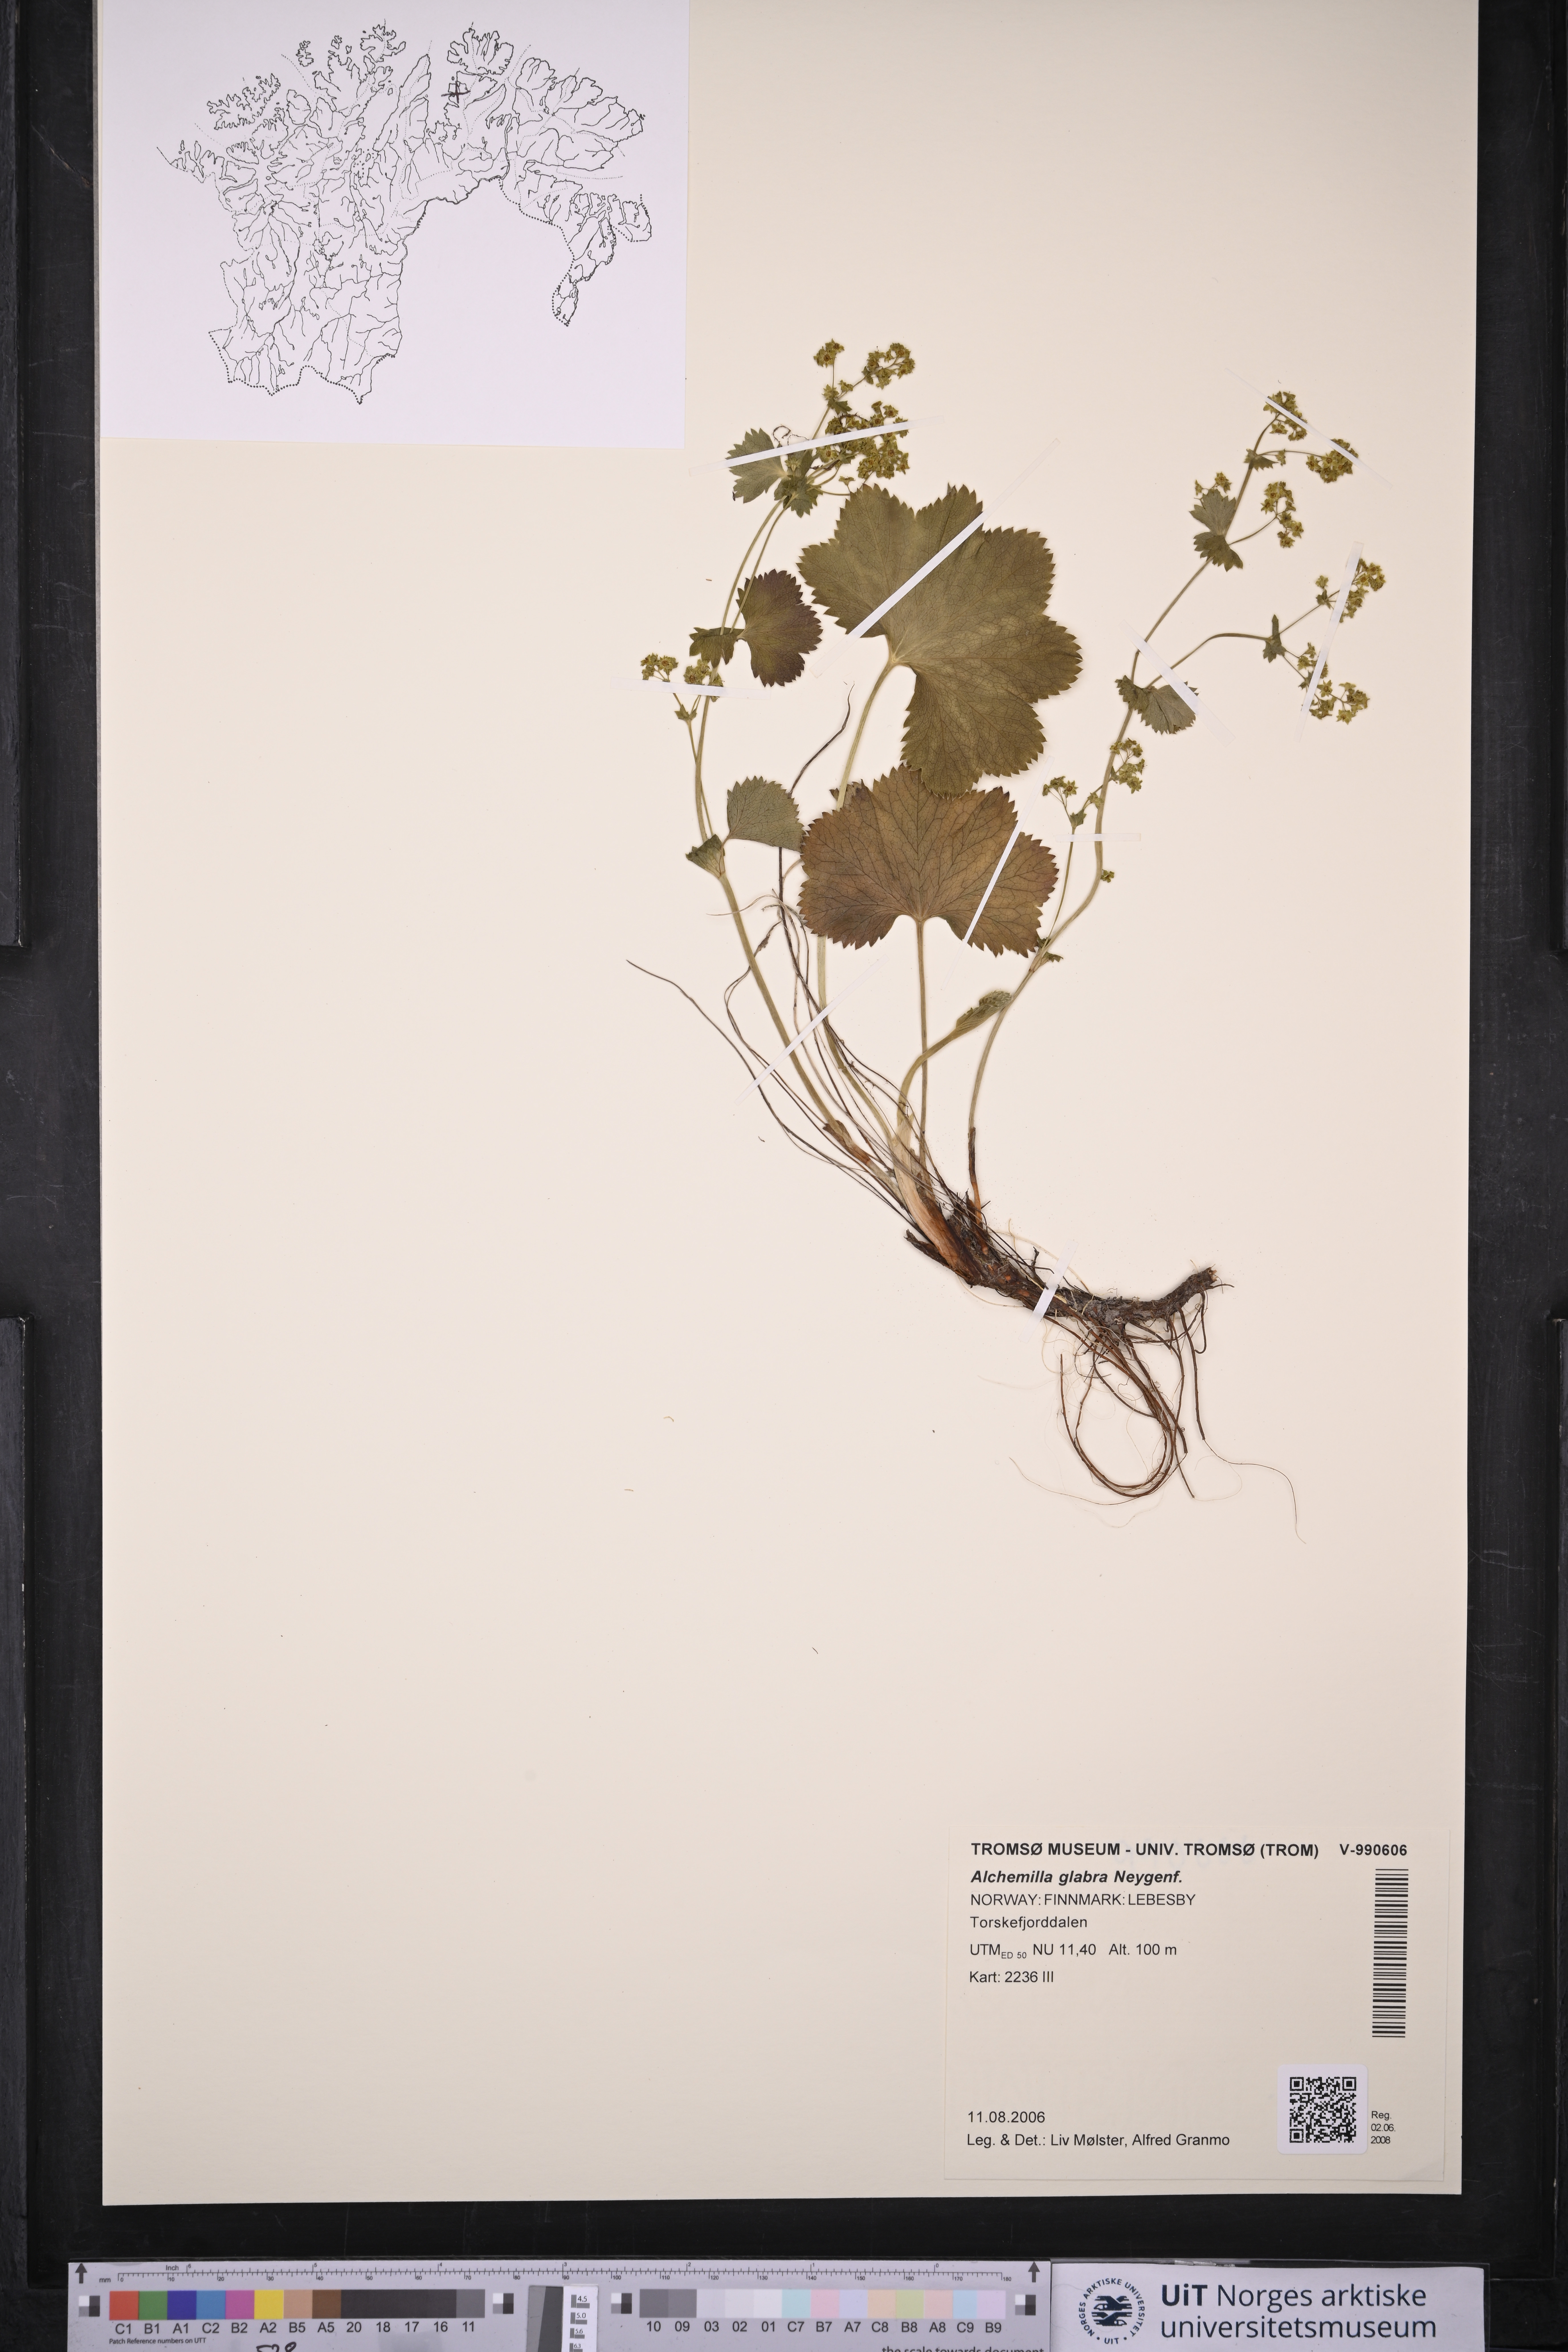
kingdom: Plantae
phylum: Tracheophyta
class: Magnoliopsida
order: Rosales
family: Rosaceae
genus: Alchemilla
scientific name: Alchemilla glabra
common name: Smooth lady's-mantle
